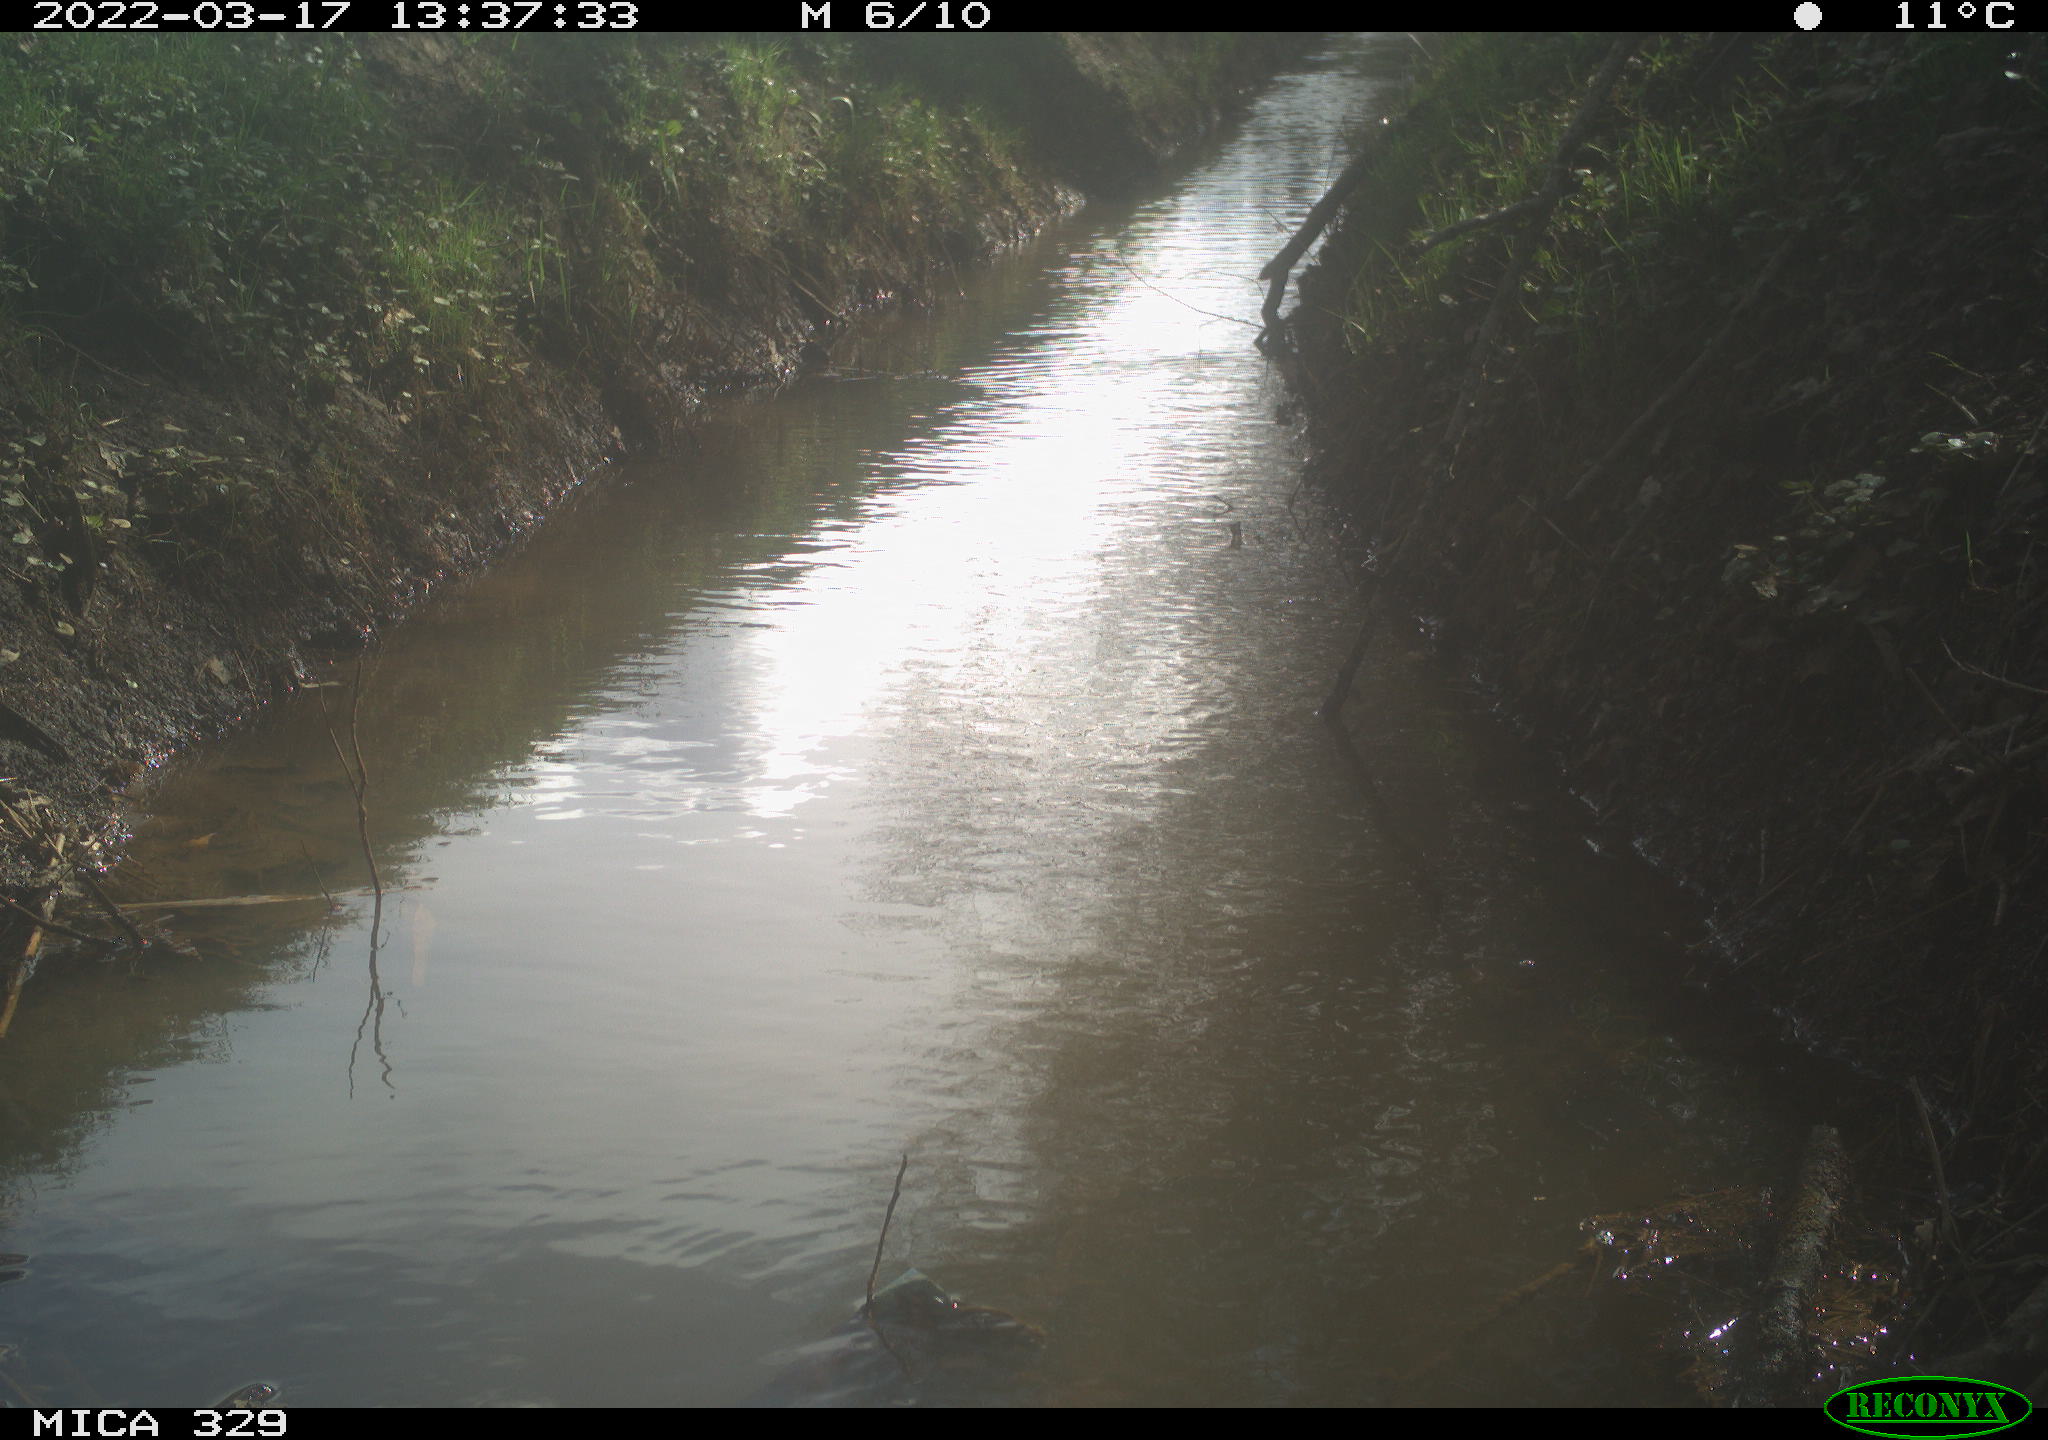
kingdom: Animalia
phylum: Chordata
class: Aves
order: Coraciiformes
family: Alcedinidae
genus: Alcedo
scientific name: Alcedo atthis
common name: Common kingfisher
